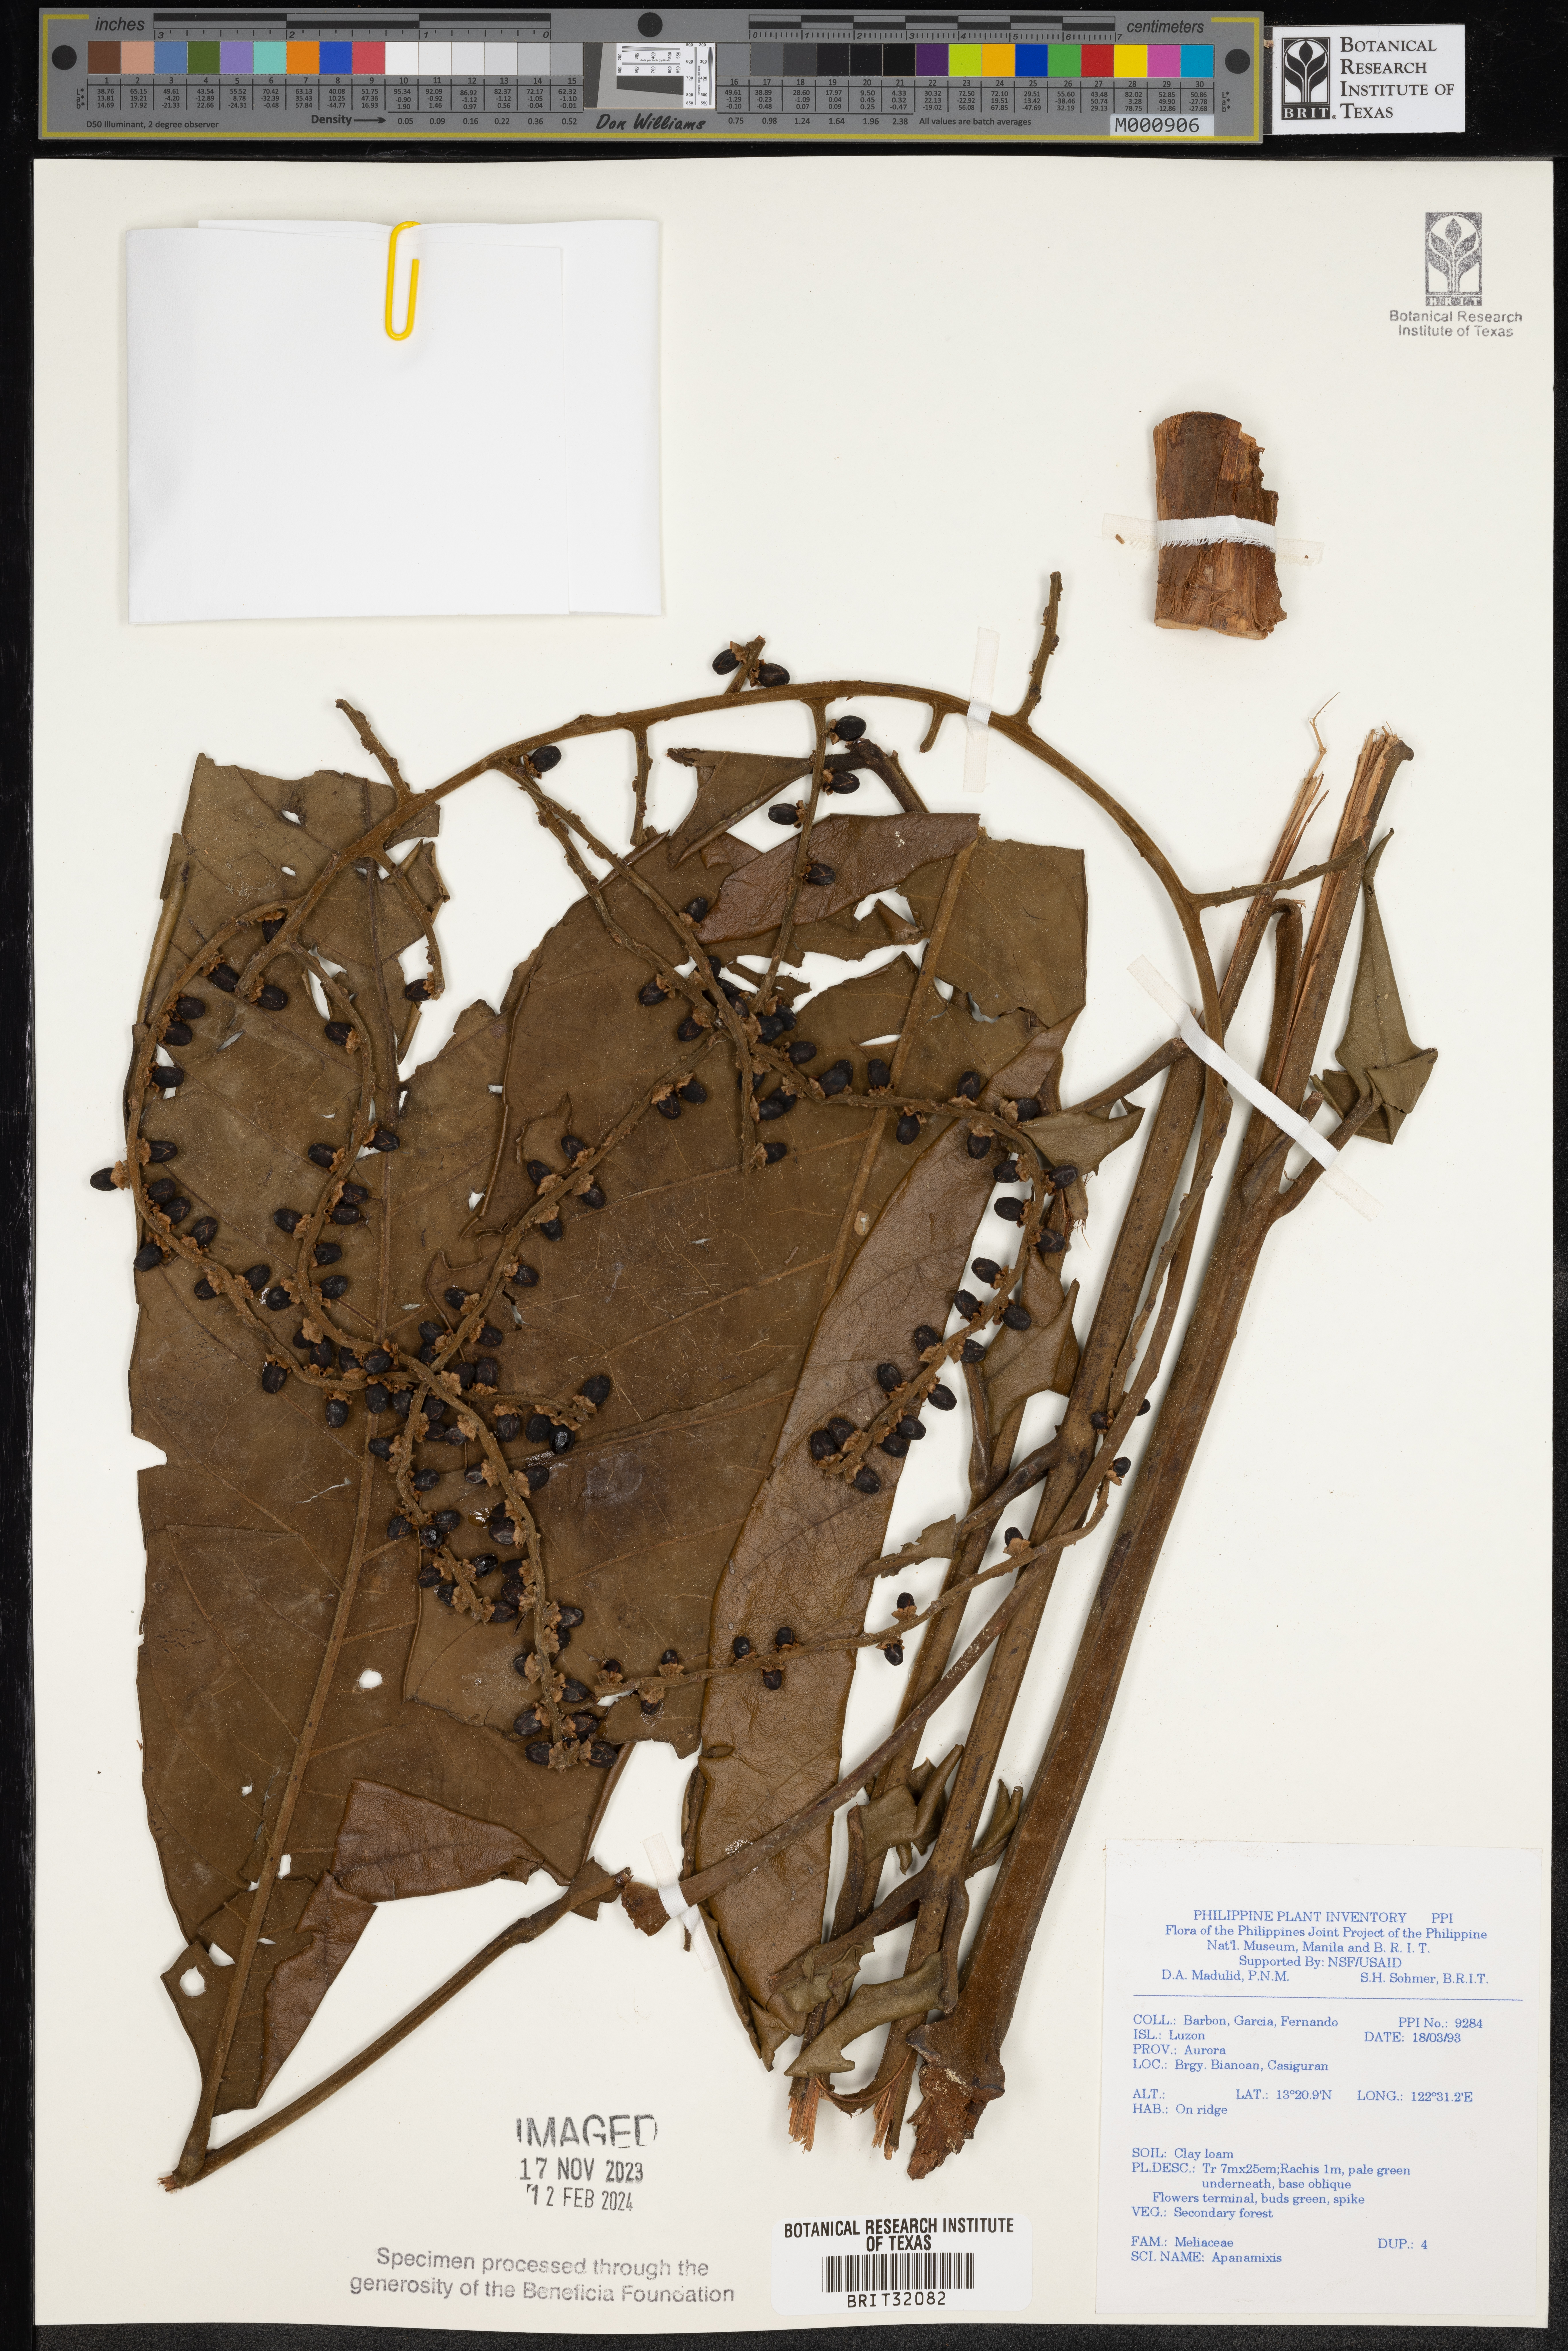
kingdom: Plantae
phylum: Tracheophyta
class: Magnoliopsida
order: Sapindales
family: Meliaceae
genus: Aphanamixis
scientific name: Aphanamixis
